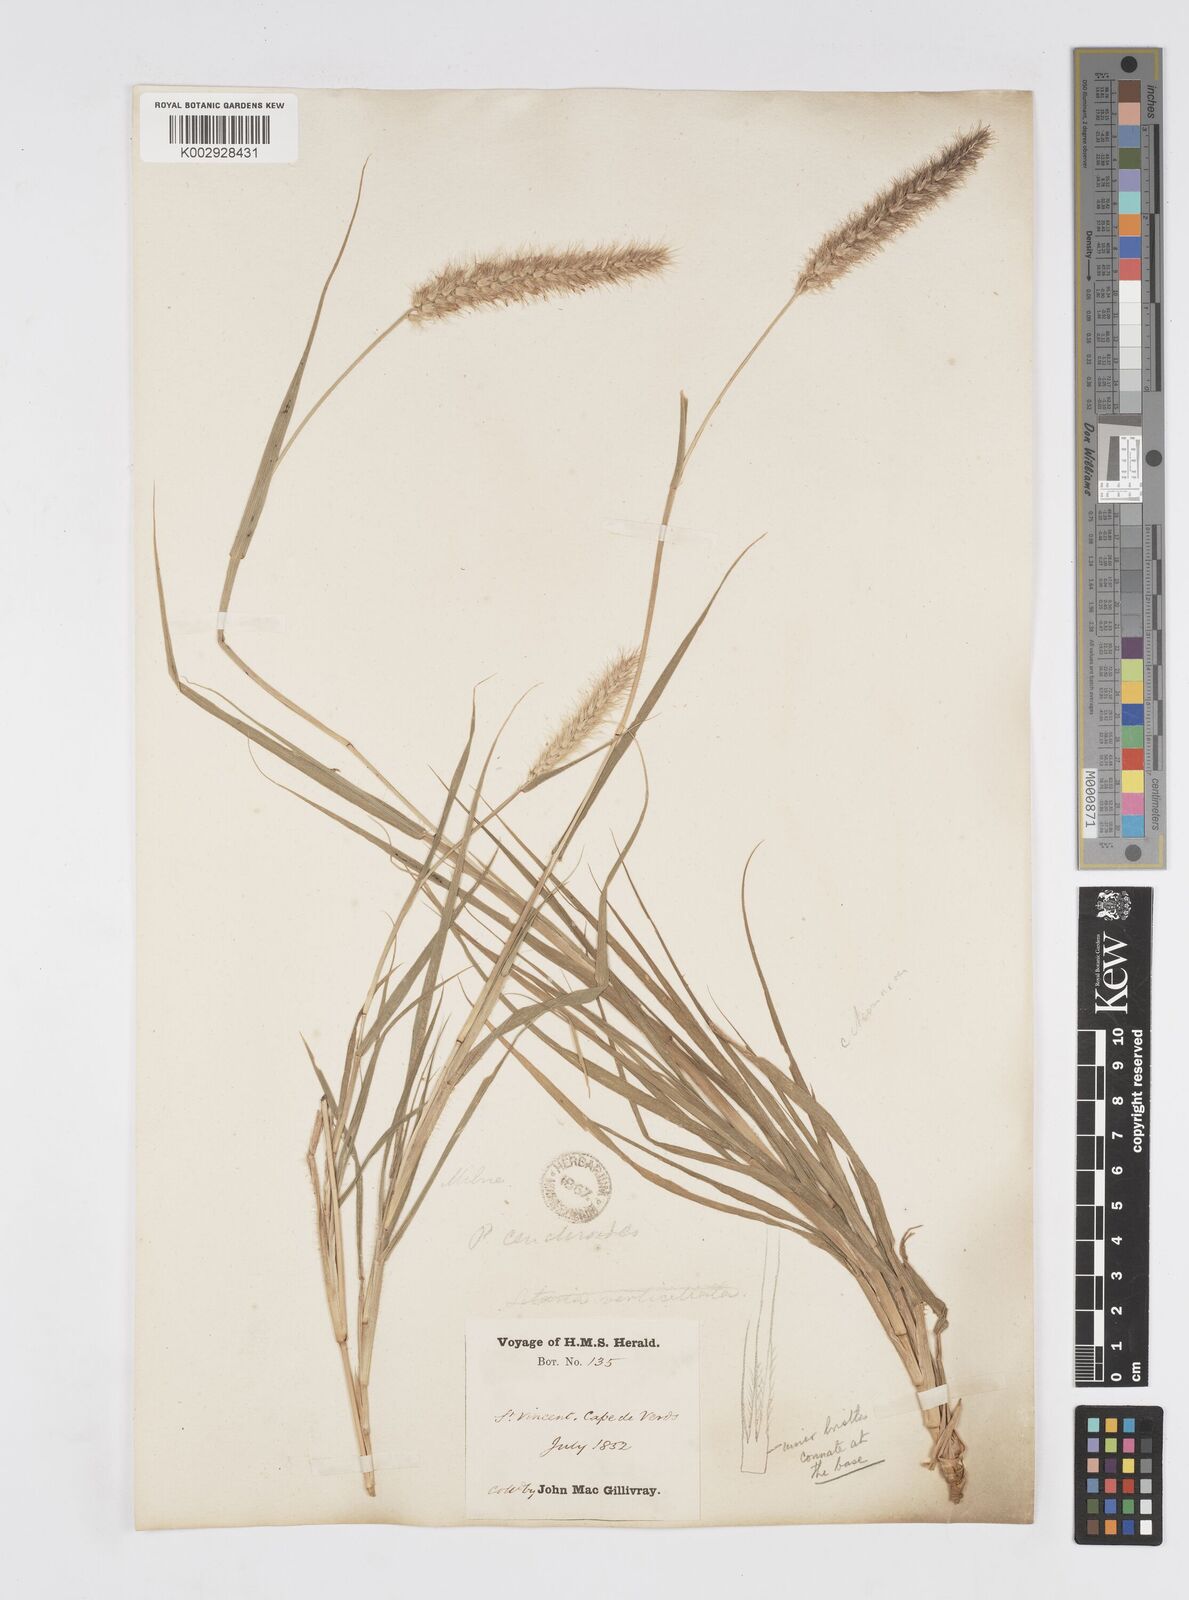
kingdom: Plantae
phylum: Tracheophyta
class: Liliopsida
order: Poales
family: Poaceae
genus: Cenchrus
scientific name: Cenchrus ciliaris
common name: Buffelgrass
